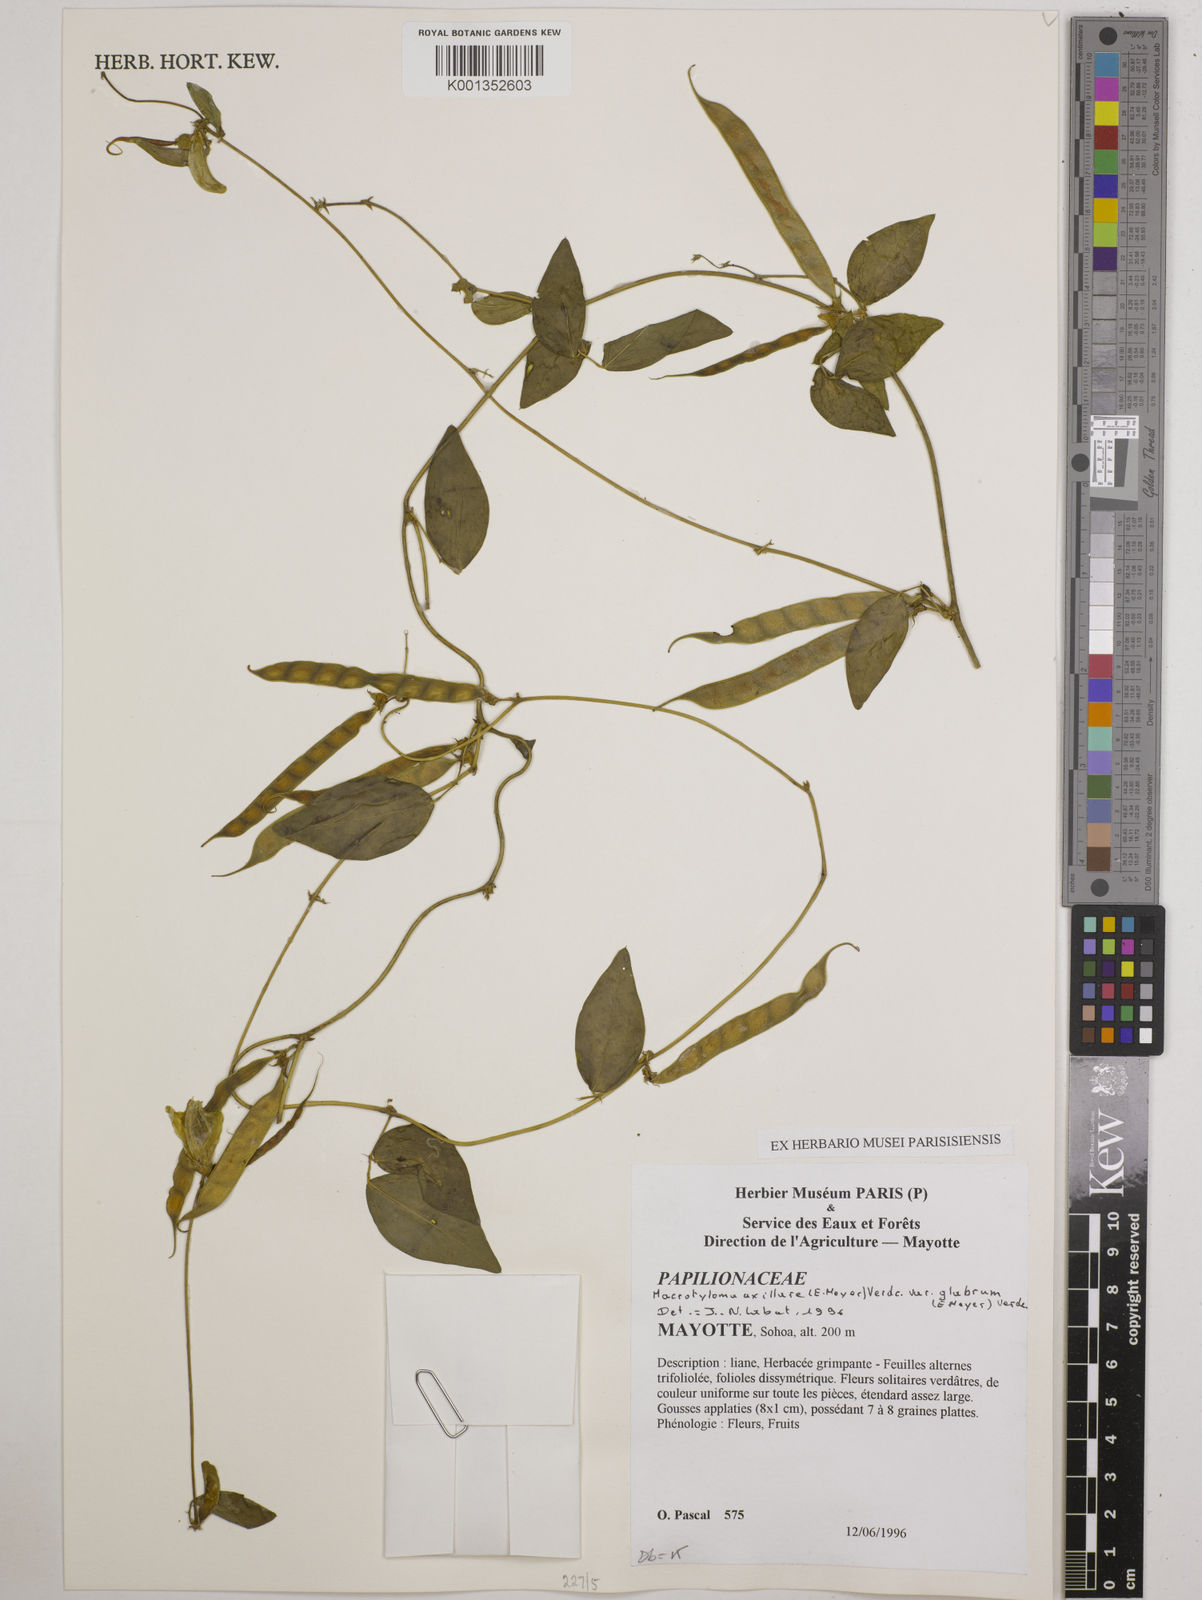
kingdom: Plantae
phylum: Tracheophyta
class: Magnoliopsida
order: Fabales
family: Fabaceae
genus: Macrotyloma
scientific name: Macrotyloma
